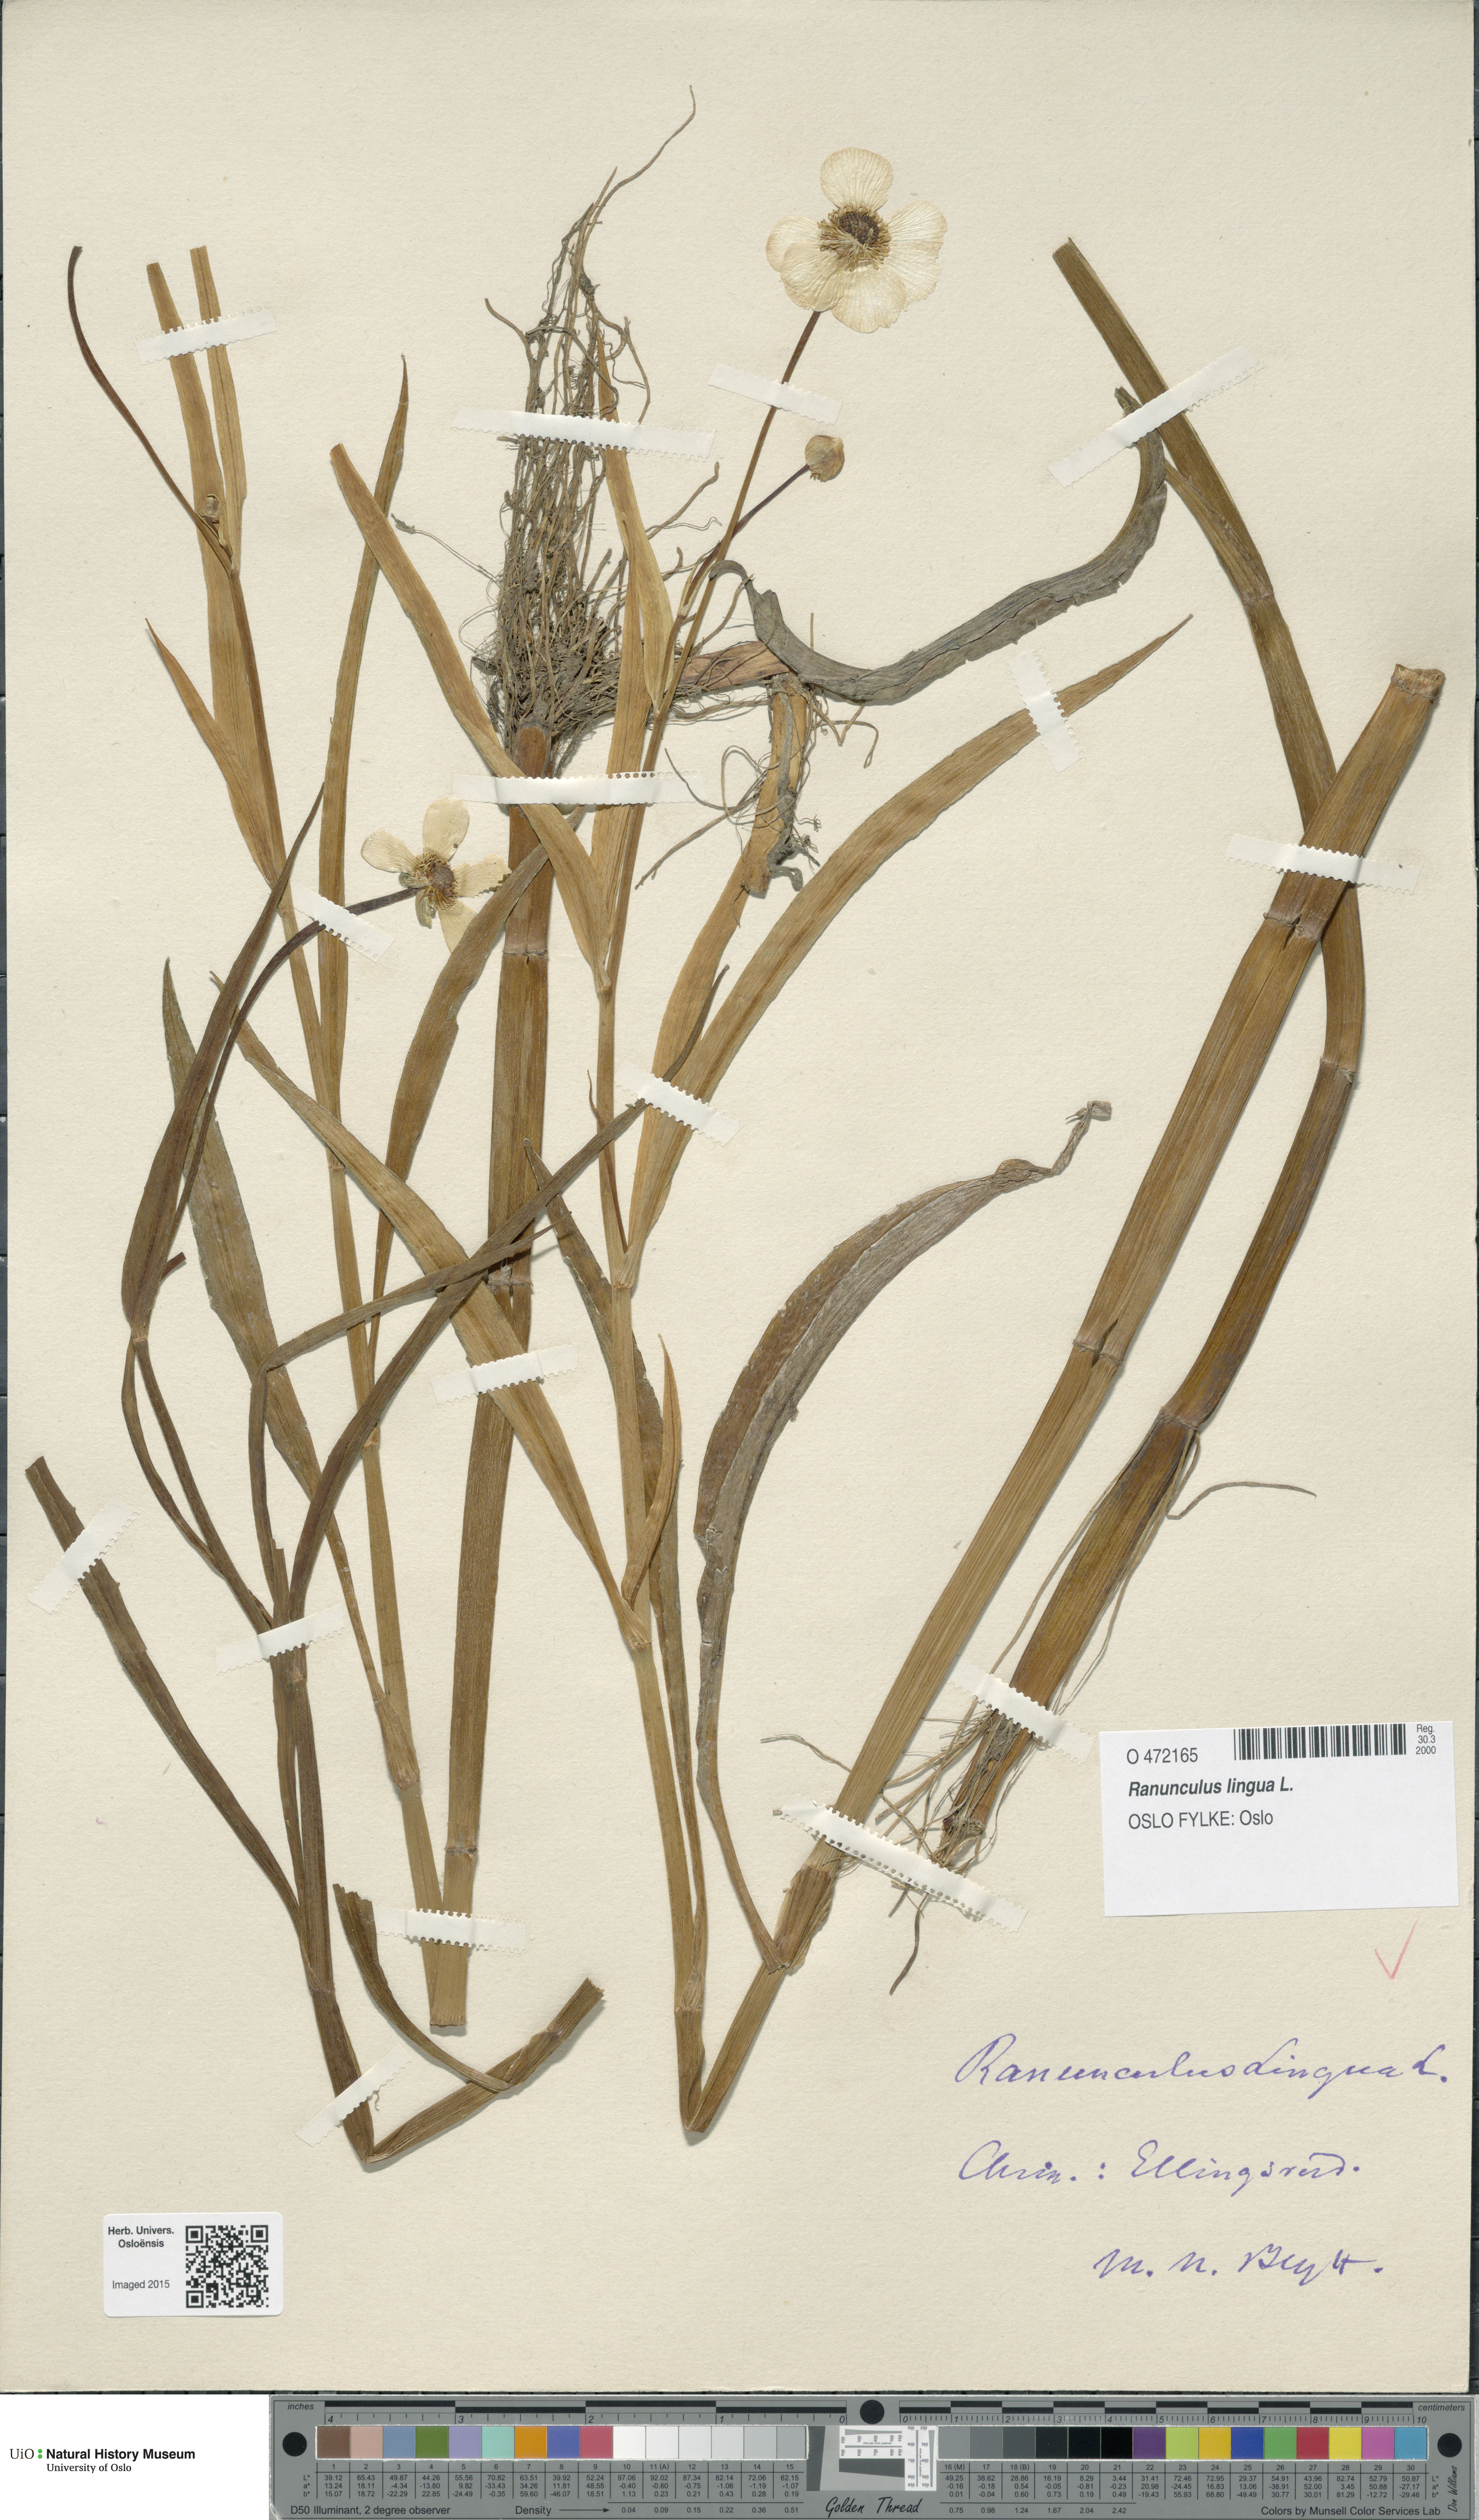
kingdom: Plantae
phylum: Tracheophyta
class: Magnoliopsida
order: Ranunculales
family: Ranunculaceae
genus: Ranunculus
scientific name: Ranunculus lingua
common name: Greater spearwort
